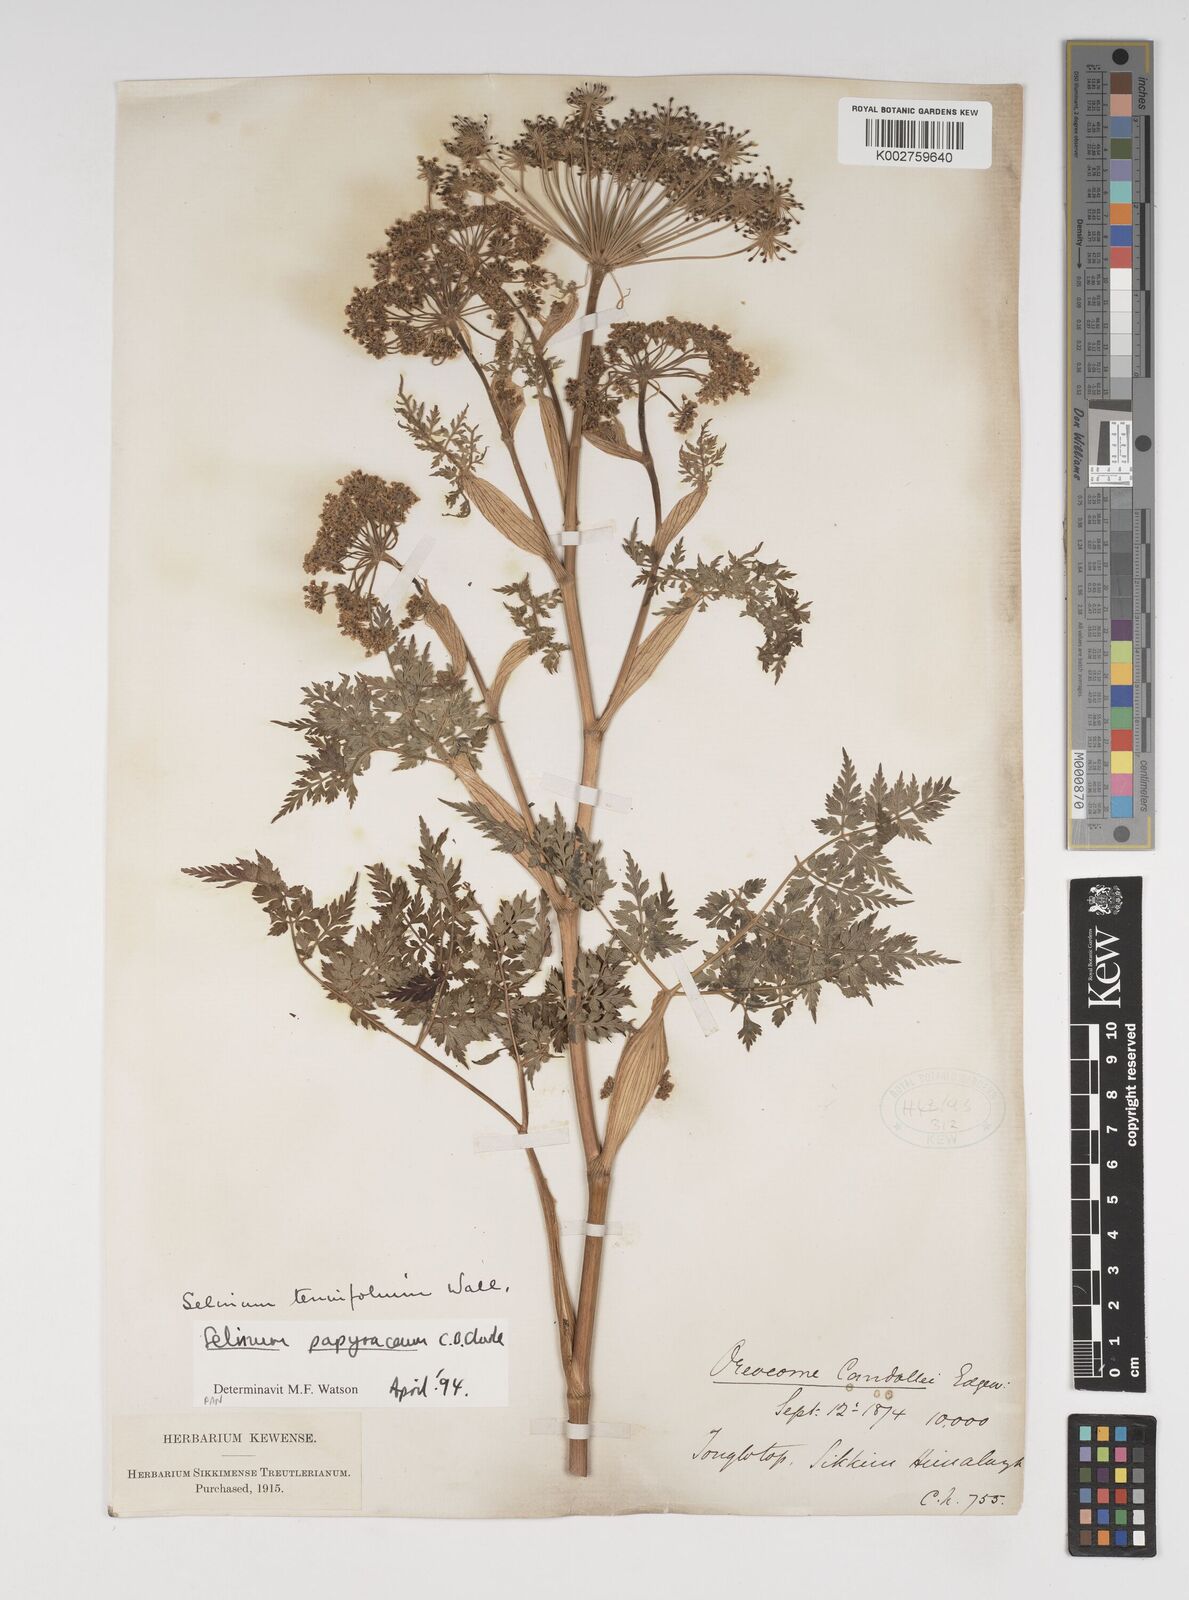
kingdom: Plantae
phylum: Tracheophyta
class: Magnoliopsida
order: Apiales
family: Apiaceae
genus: Conioselinum
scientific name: Conioselinum tataricum
